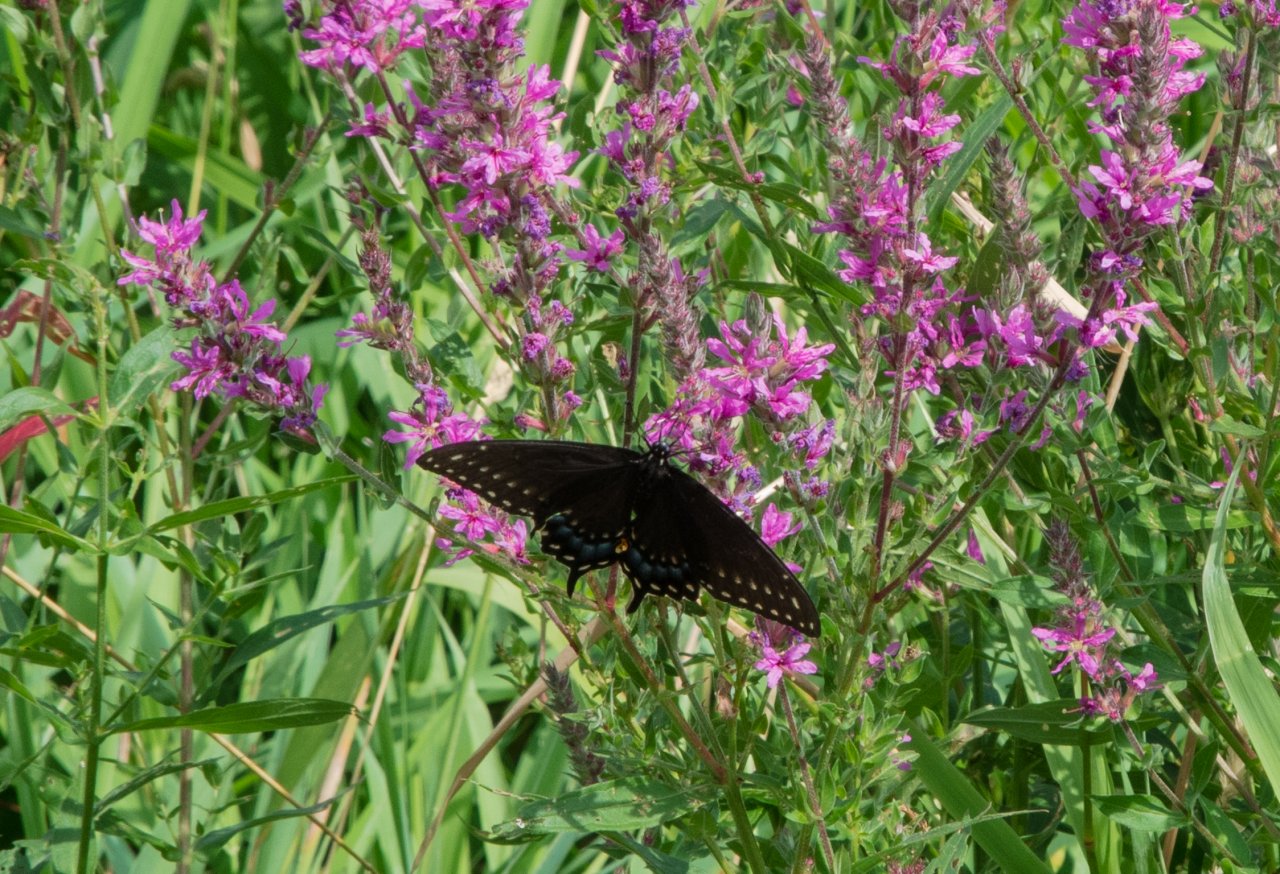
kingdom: Animalia
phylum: Arthropoda
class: Insecta
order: Lepidoptera
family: Papilionidae
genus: Papilio
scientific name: Papilio polyxenes
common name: Black Swallowtail
